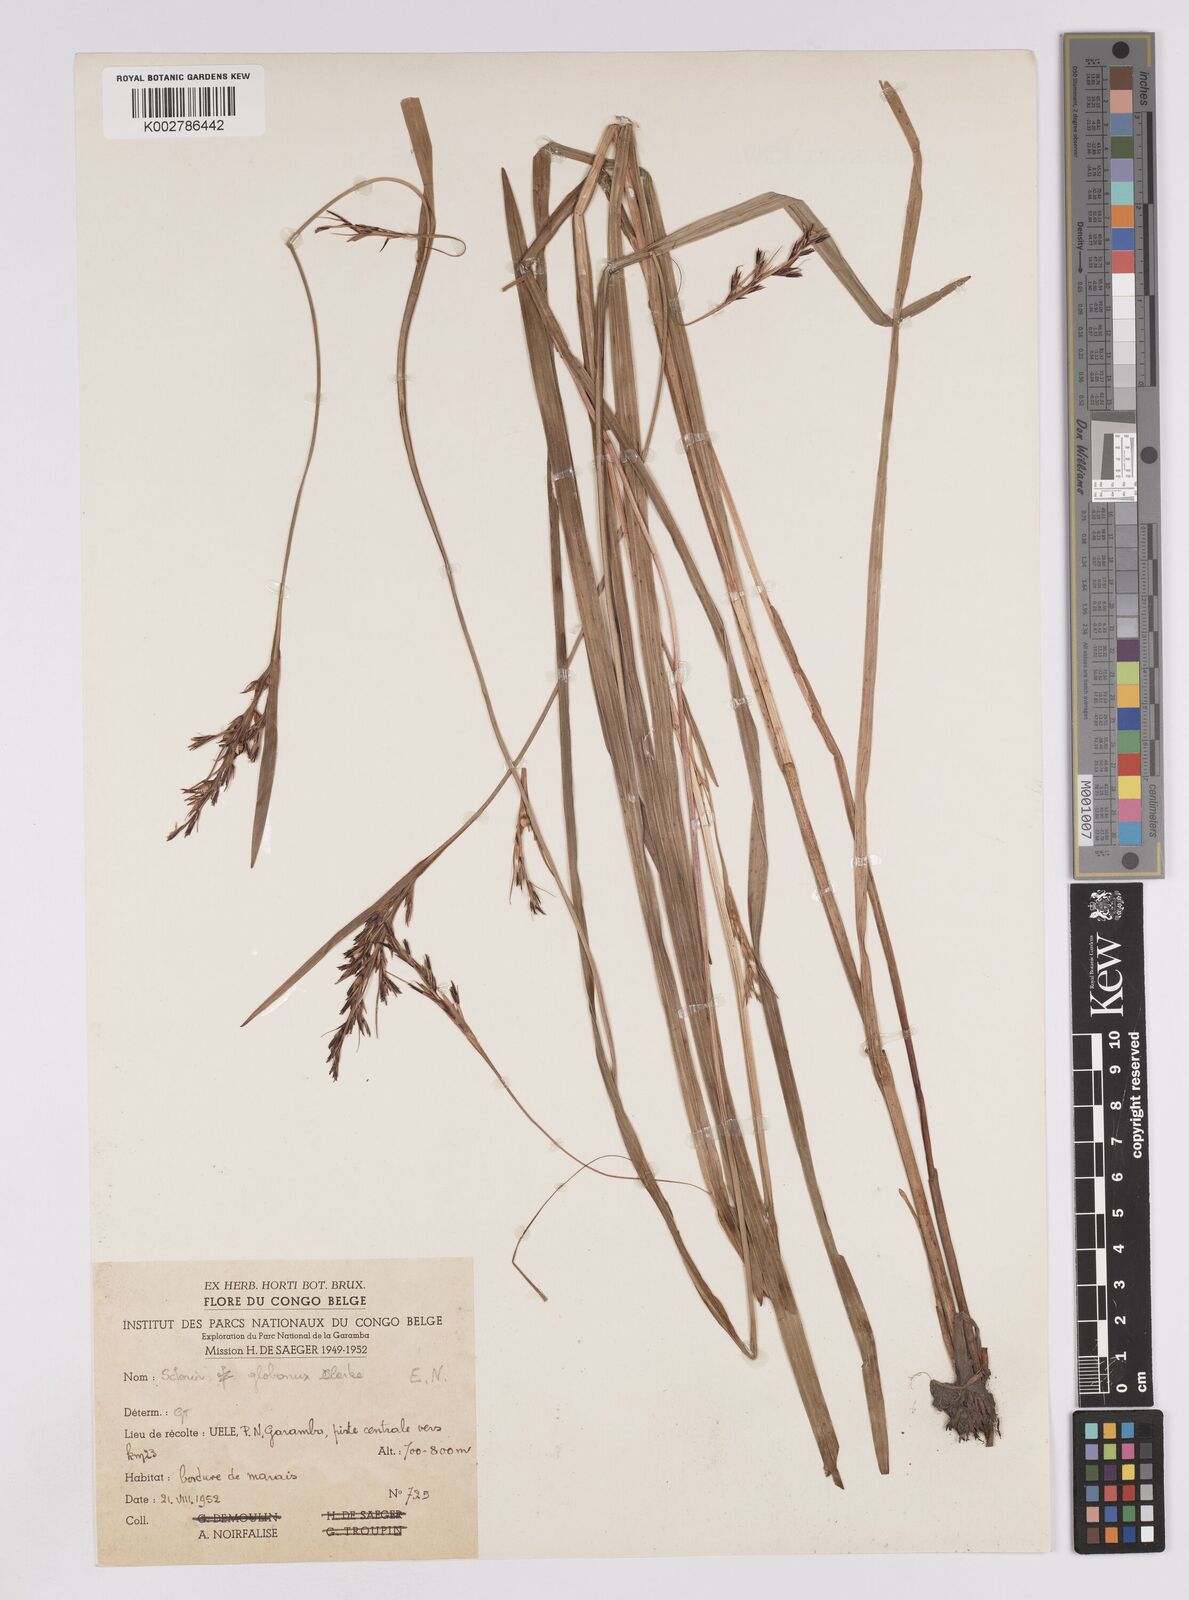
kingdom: Plantae
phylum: Tracheophyta
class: Liliopsida
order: Poales
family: Cyperaceae
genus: Scleria
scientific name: Scleria globonux
